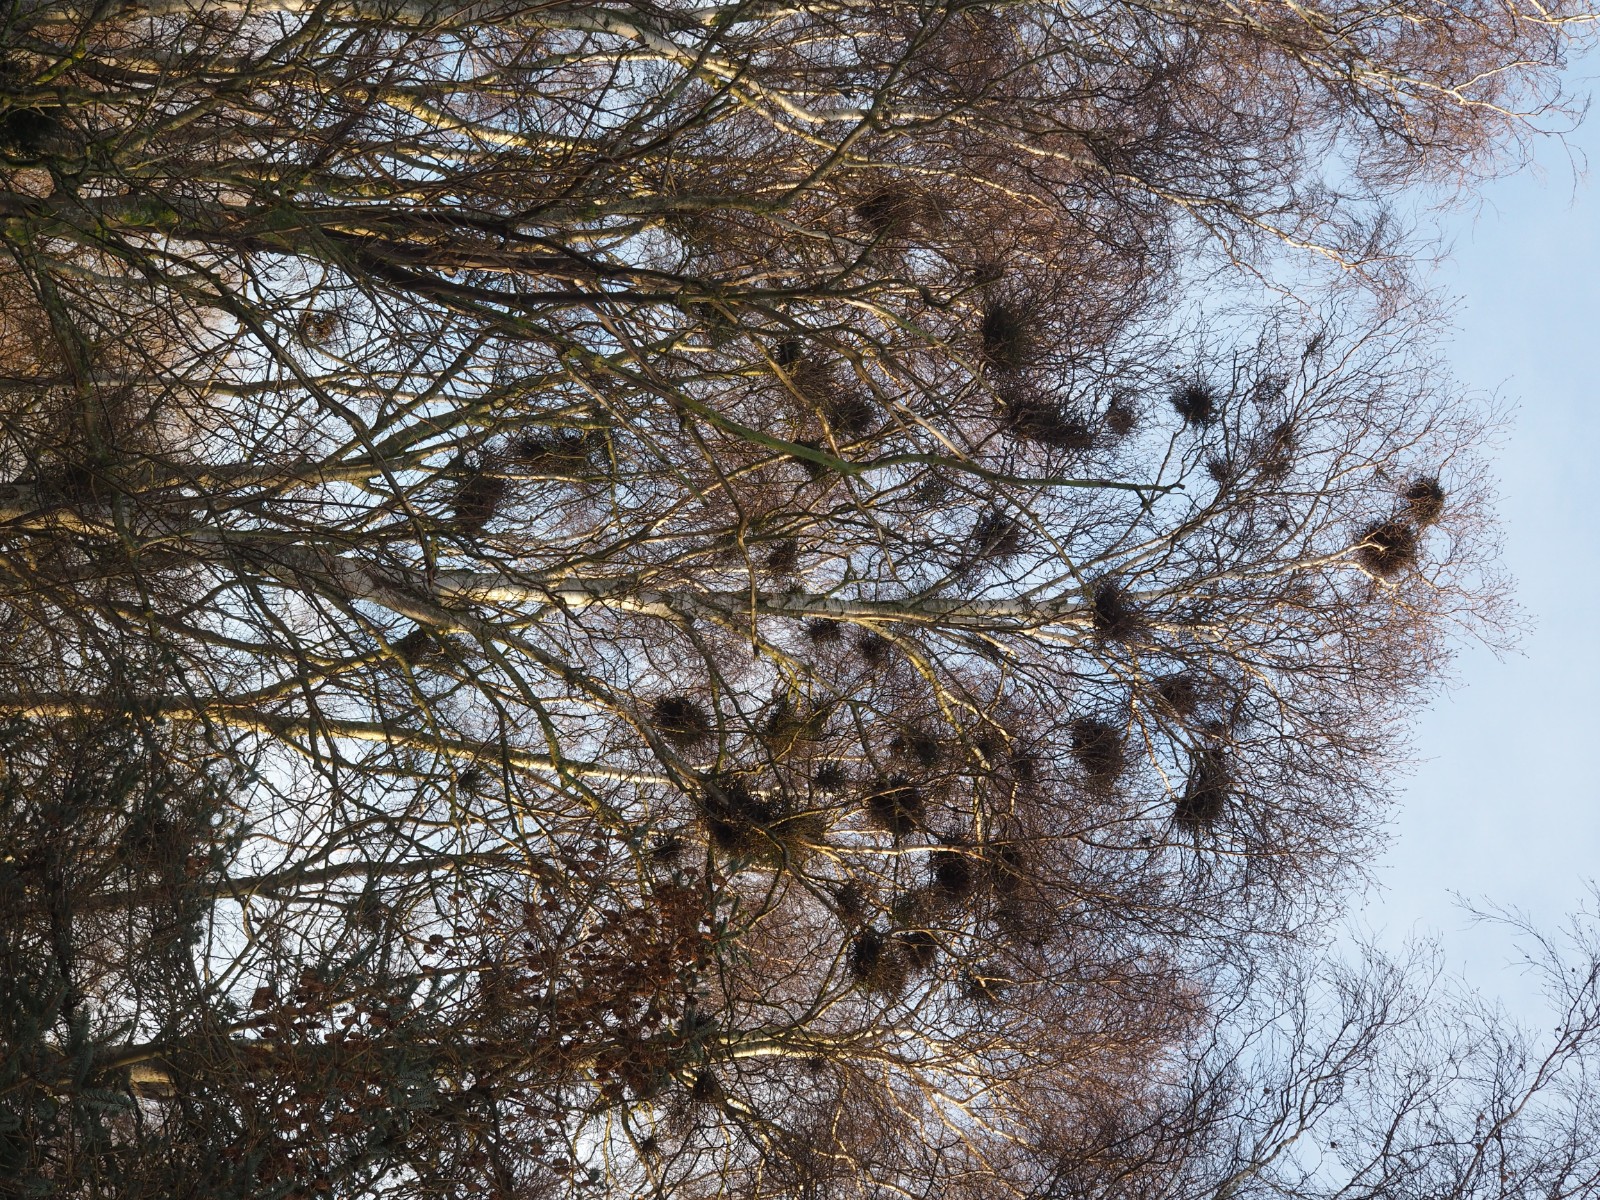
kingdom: Fungi
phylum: Ascomycota
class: Taphrinomycetes
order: Taphrinales
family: Taphrinaceae
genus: Taphrina
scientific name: Taphrina betulina
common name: hekse-sækdug
